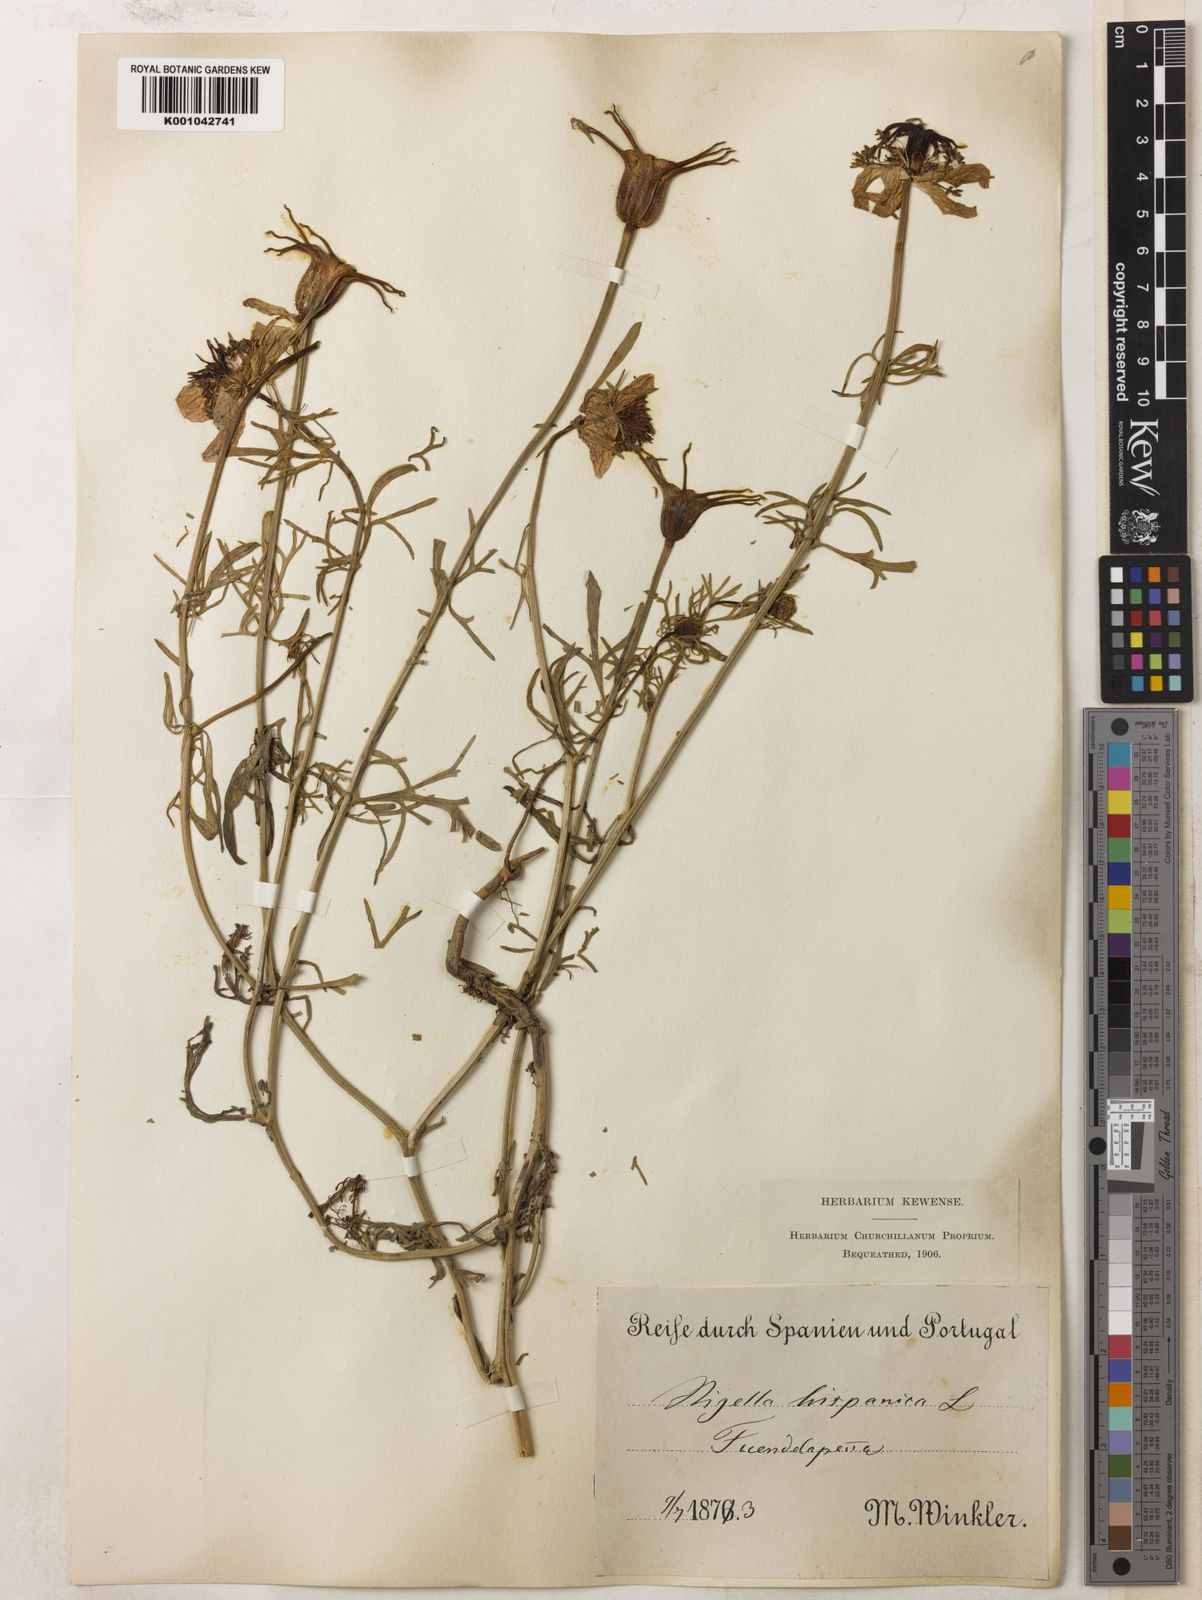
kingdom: Plantae
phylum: Tracheophyta
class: Magnoliopsida
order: Ranunculales
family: Ranunculaceae
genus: Nigella
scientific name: Nigella hispanica
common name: Fennel-flower
